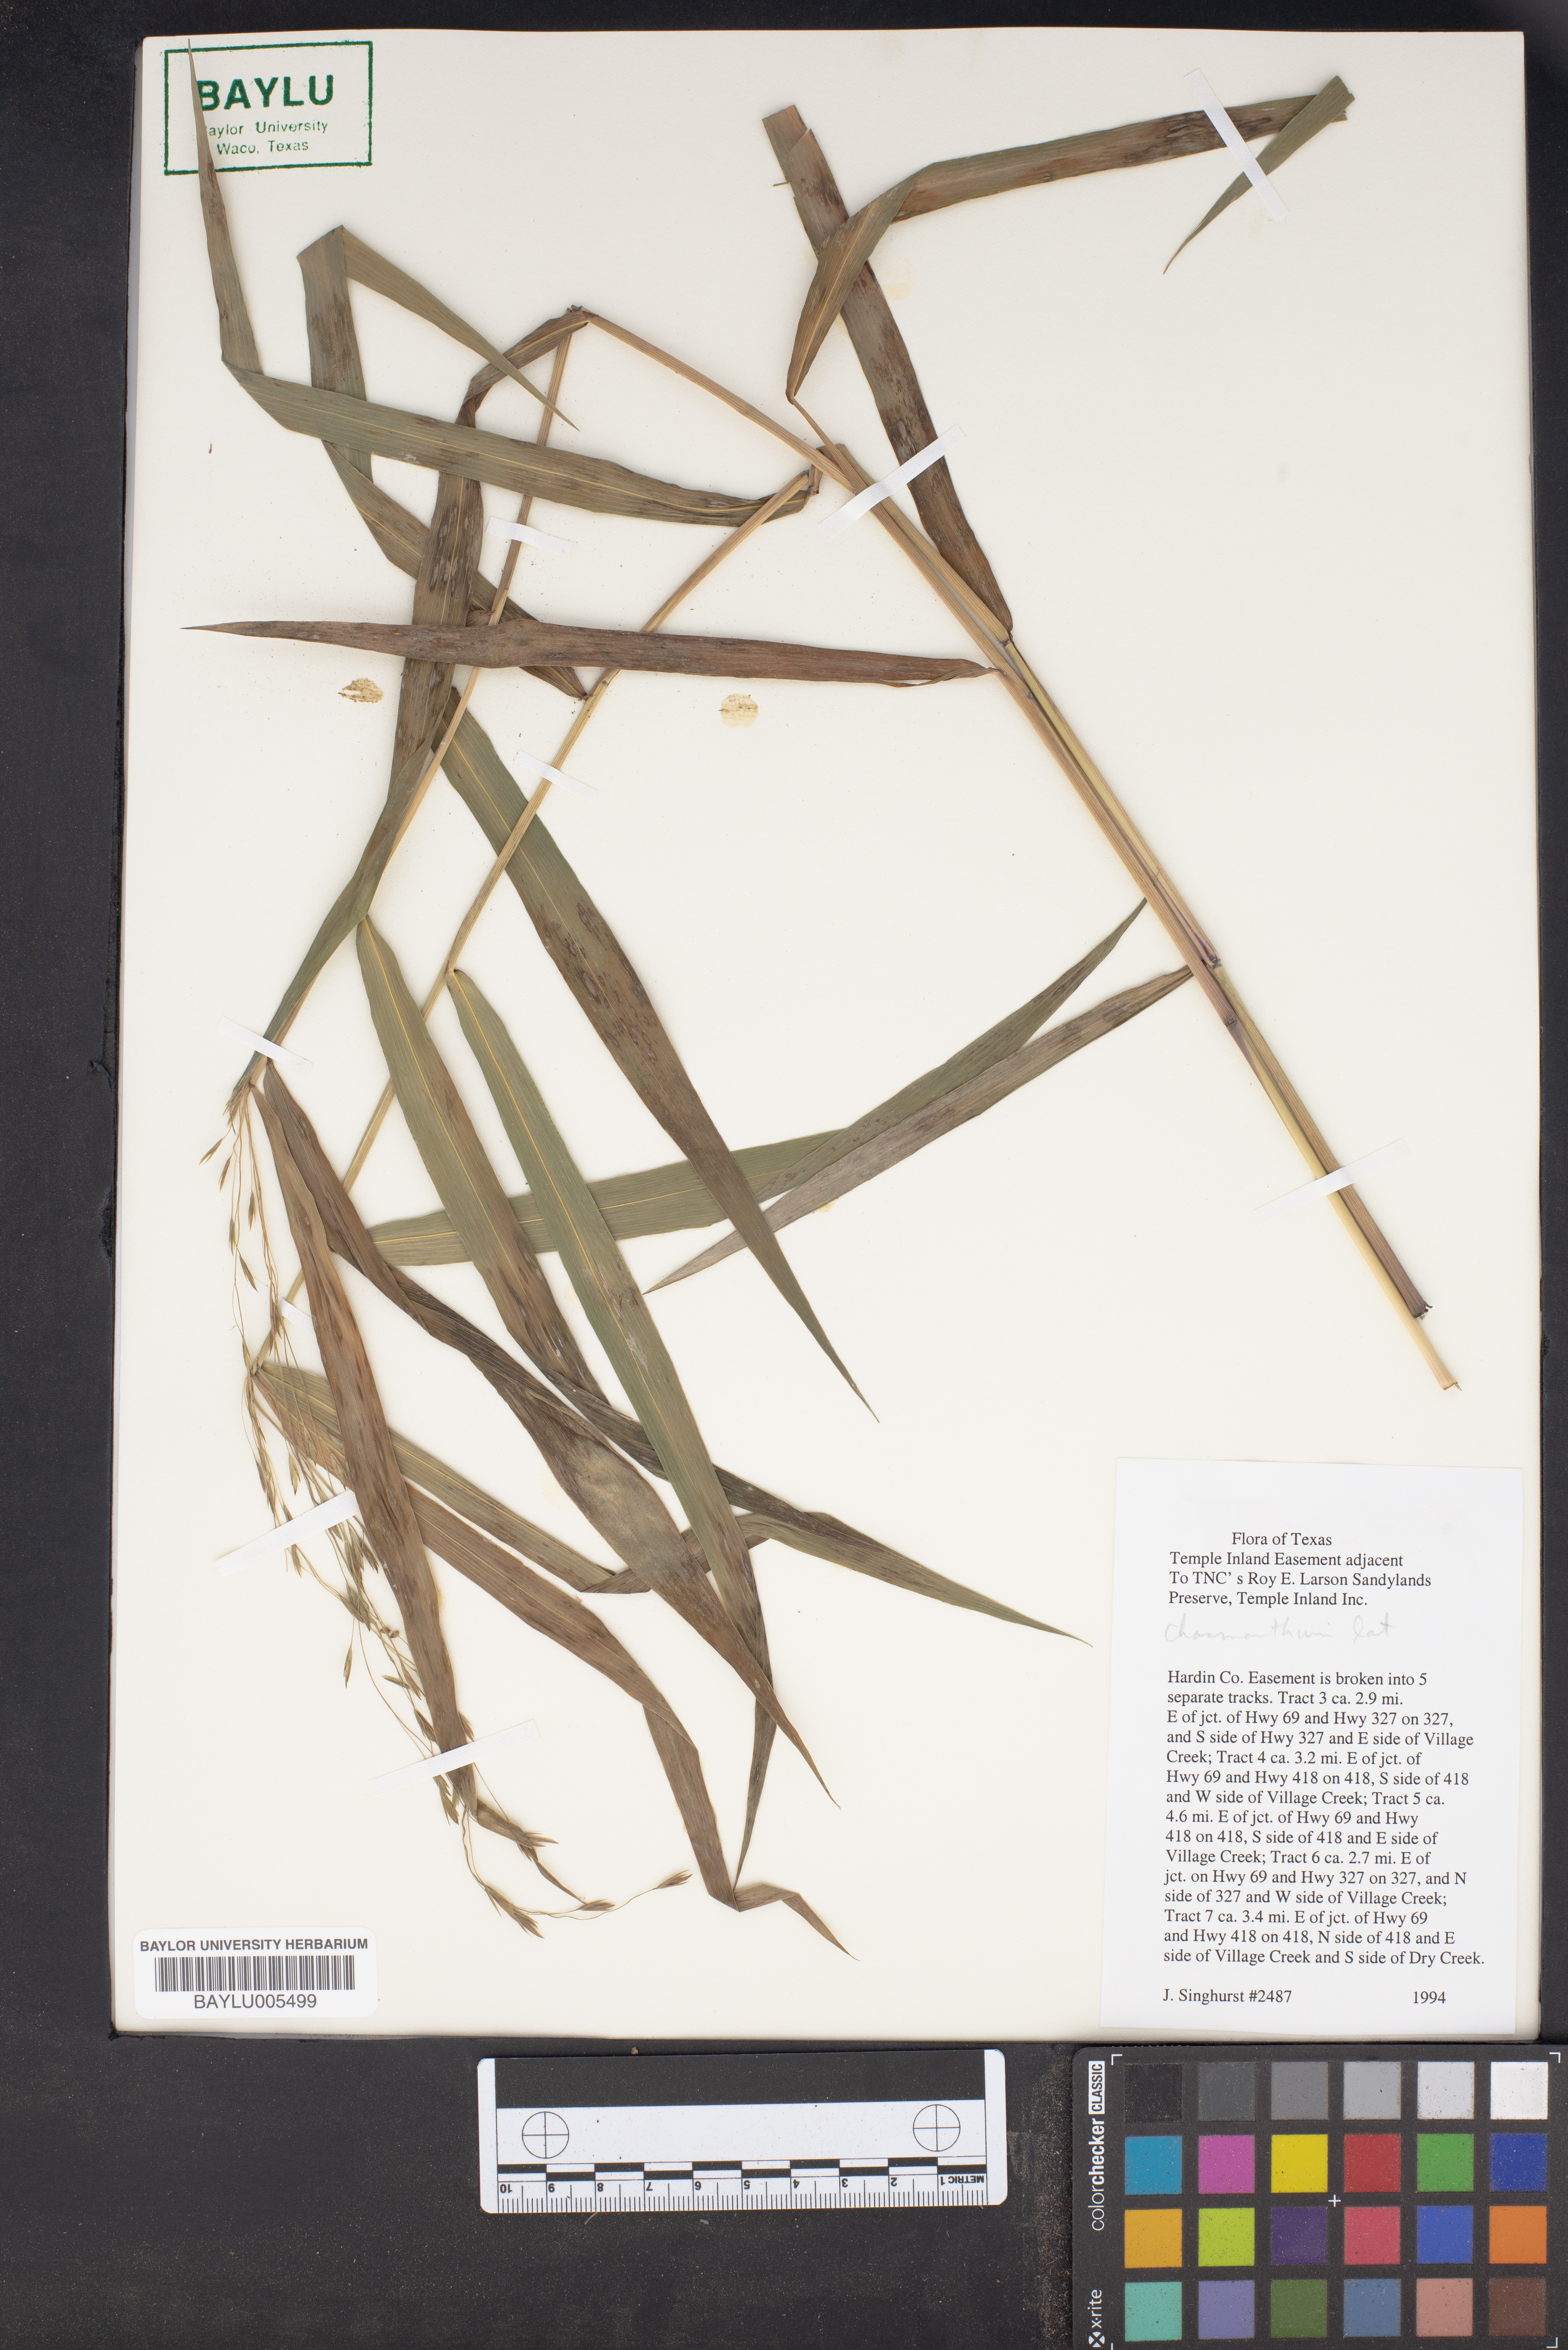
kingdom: Plantae
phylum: Tracheophyta
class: Liliopsida
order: Poales
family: Poaceae
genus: Chasmanthium
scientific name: Chasmanthium
